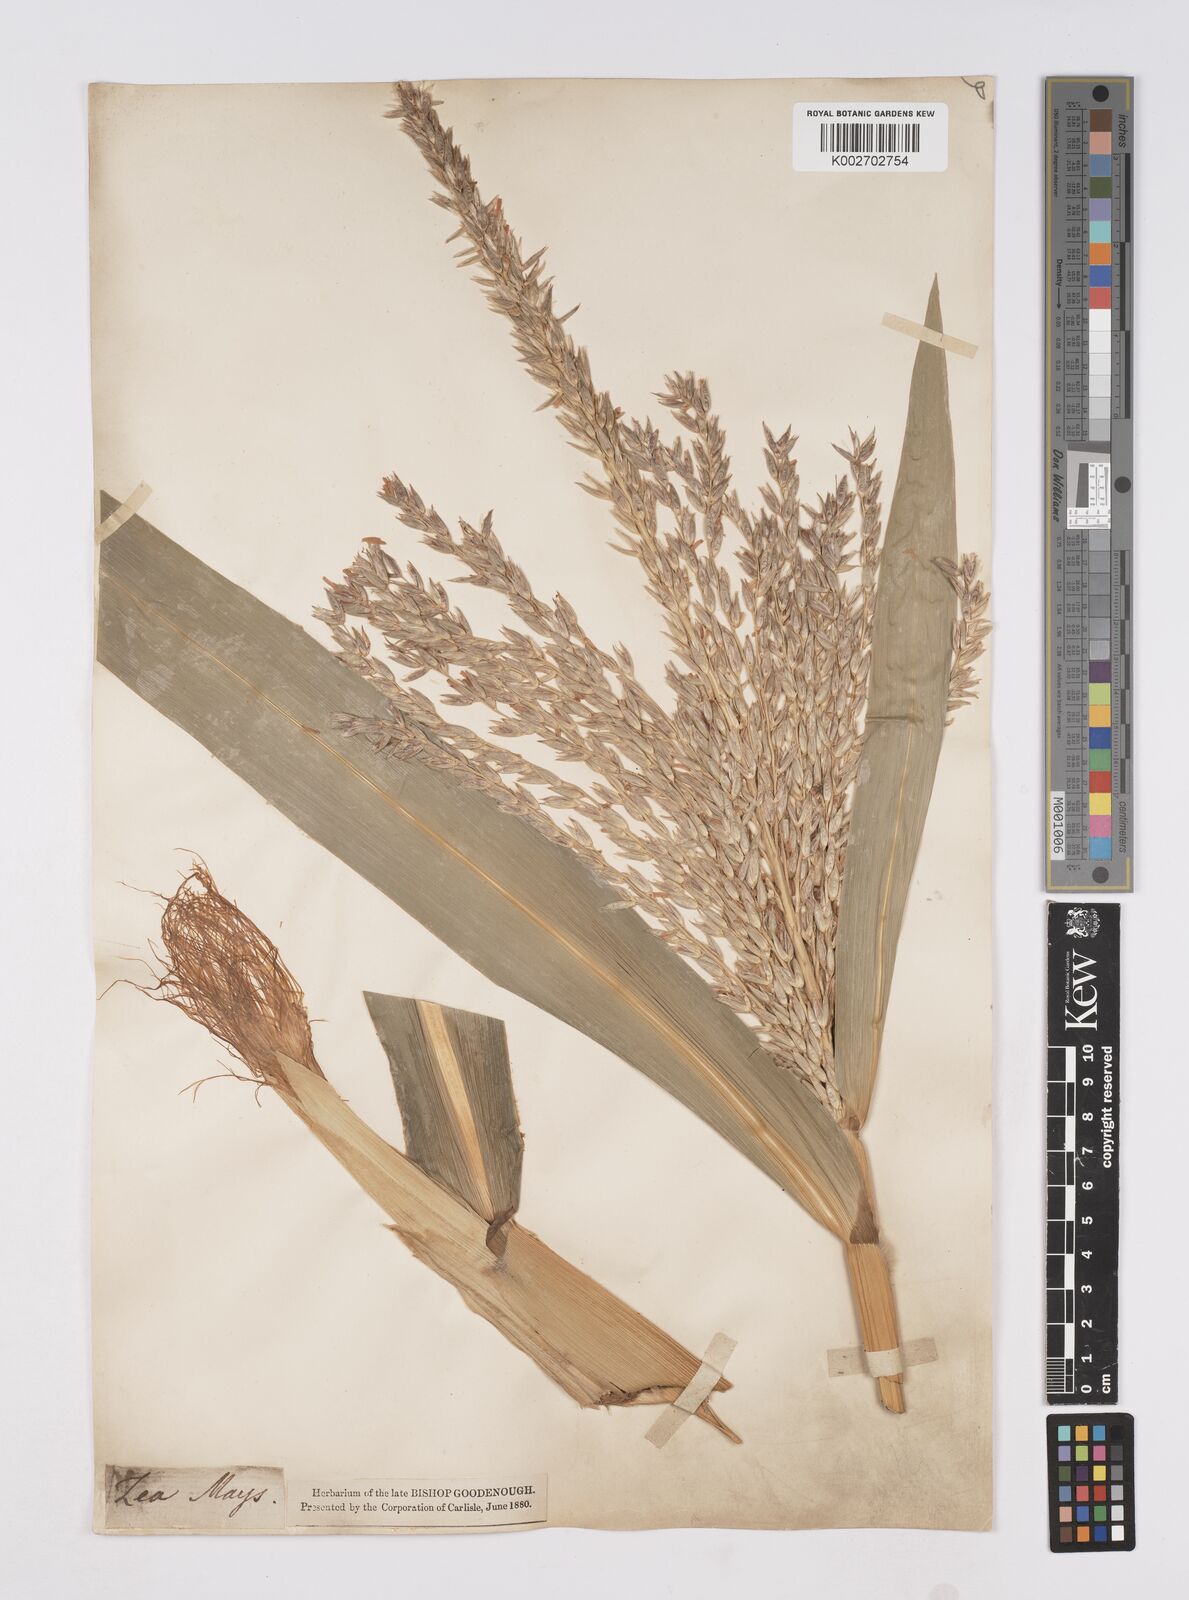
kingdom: Plantae
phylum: Tracheophyta
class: Liliopsida
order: Poales
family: Poaceae
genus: Zea
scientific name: Zea mays
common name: Maize
